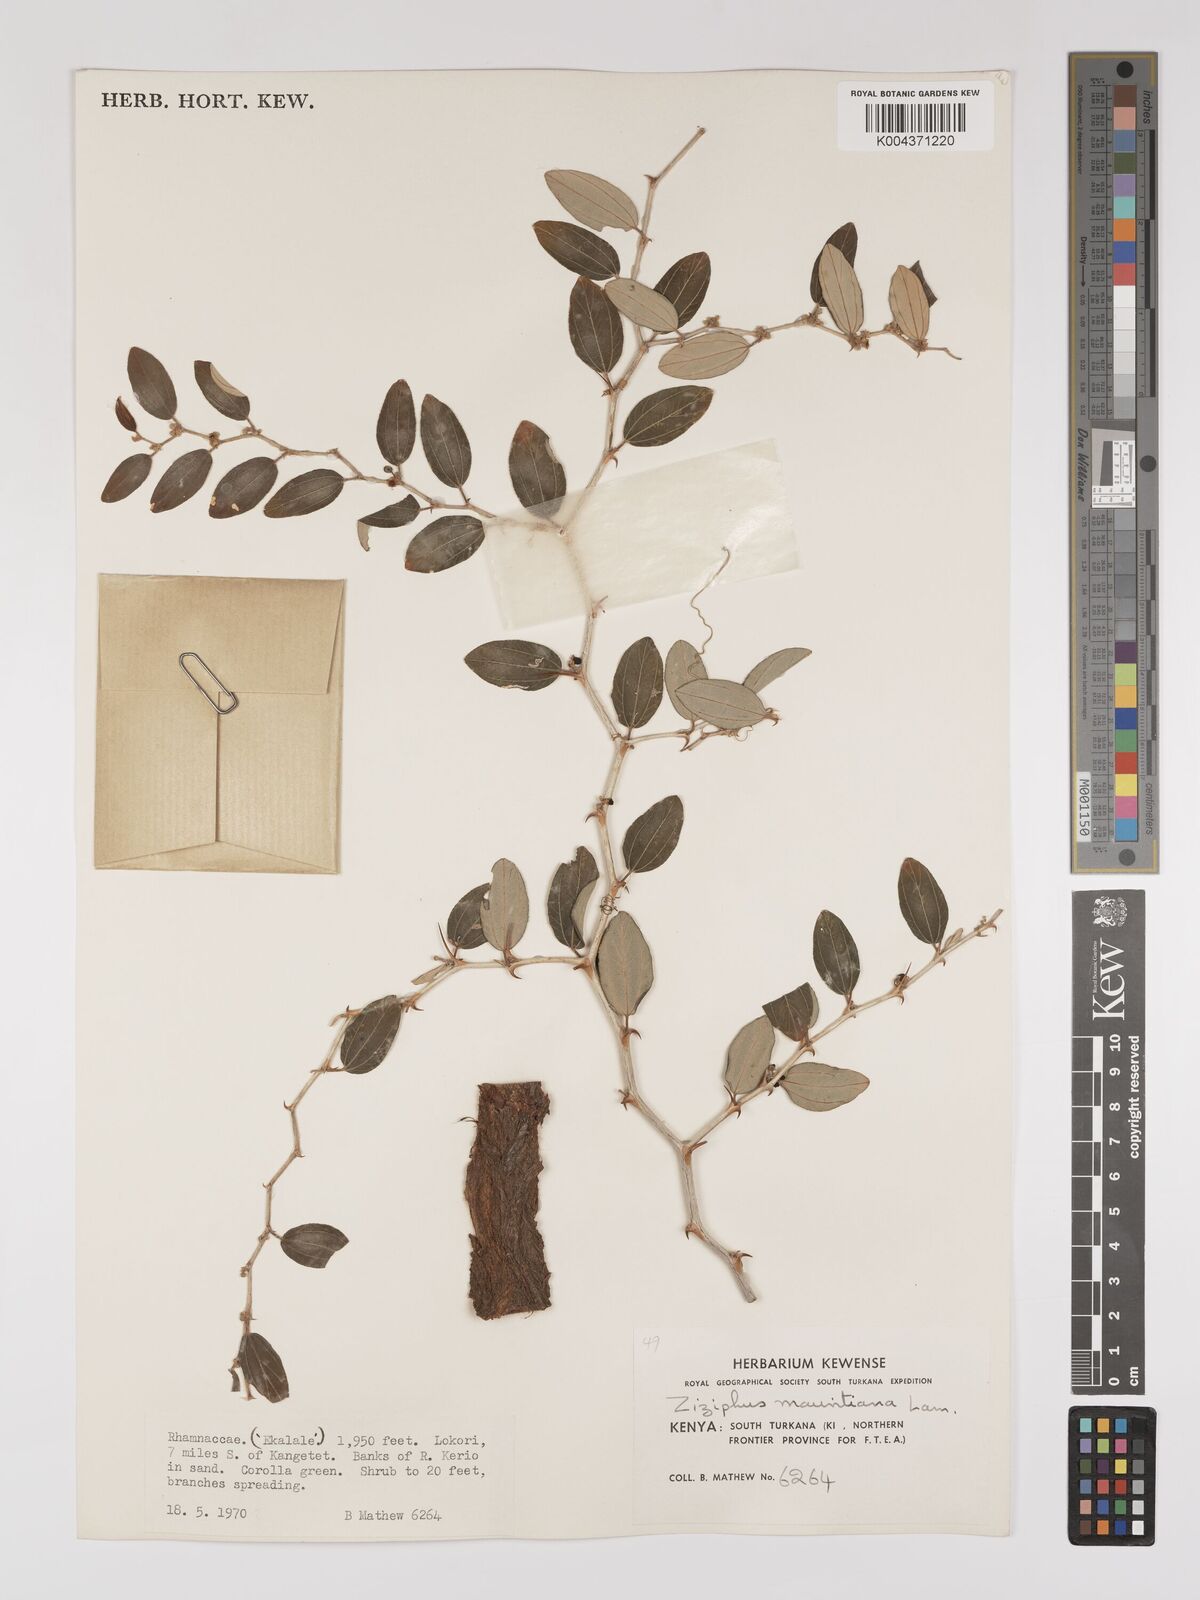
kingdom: Plantae
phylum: Tracheophyta
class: Magnoliopsida
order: Rosales
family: Rhamnaceae
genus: Ziziphus
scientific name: Ziziphus mauritiana
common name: Indian jujube
